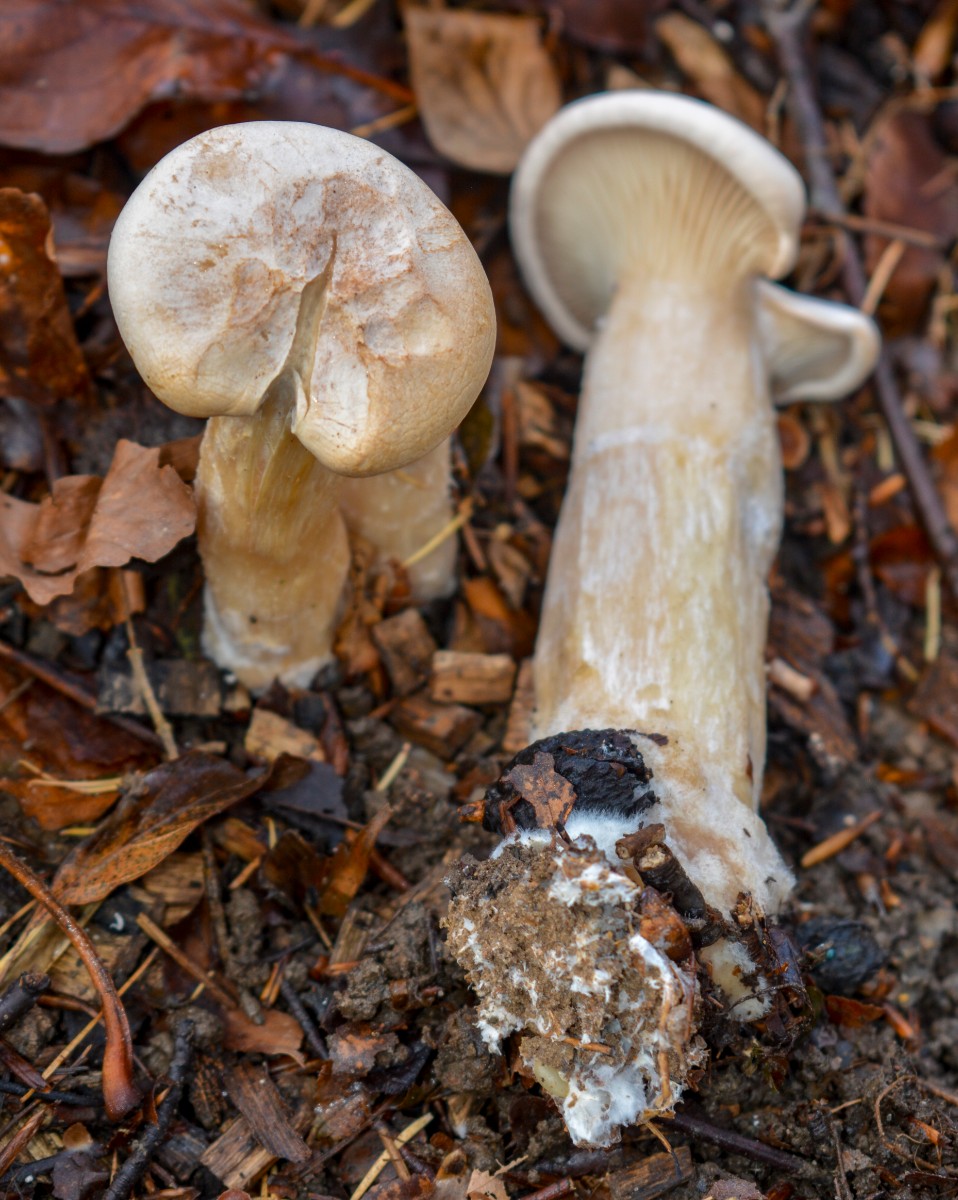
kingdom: Fungi
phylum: Basidiomycota
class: Agaricomycetes
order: Agaricales
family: Tricholomataceae
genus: Infundibulicybe
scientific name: Infundibulicybe geotropa
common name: stor tragthat
